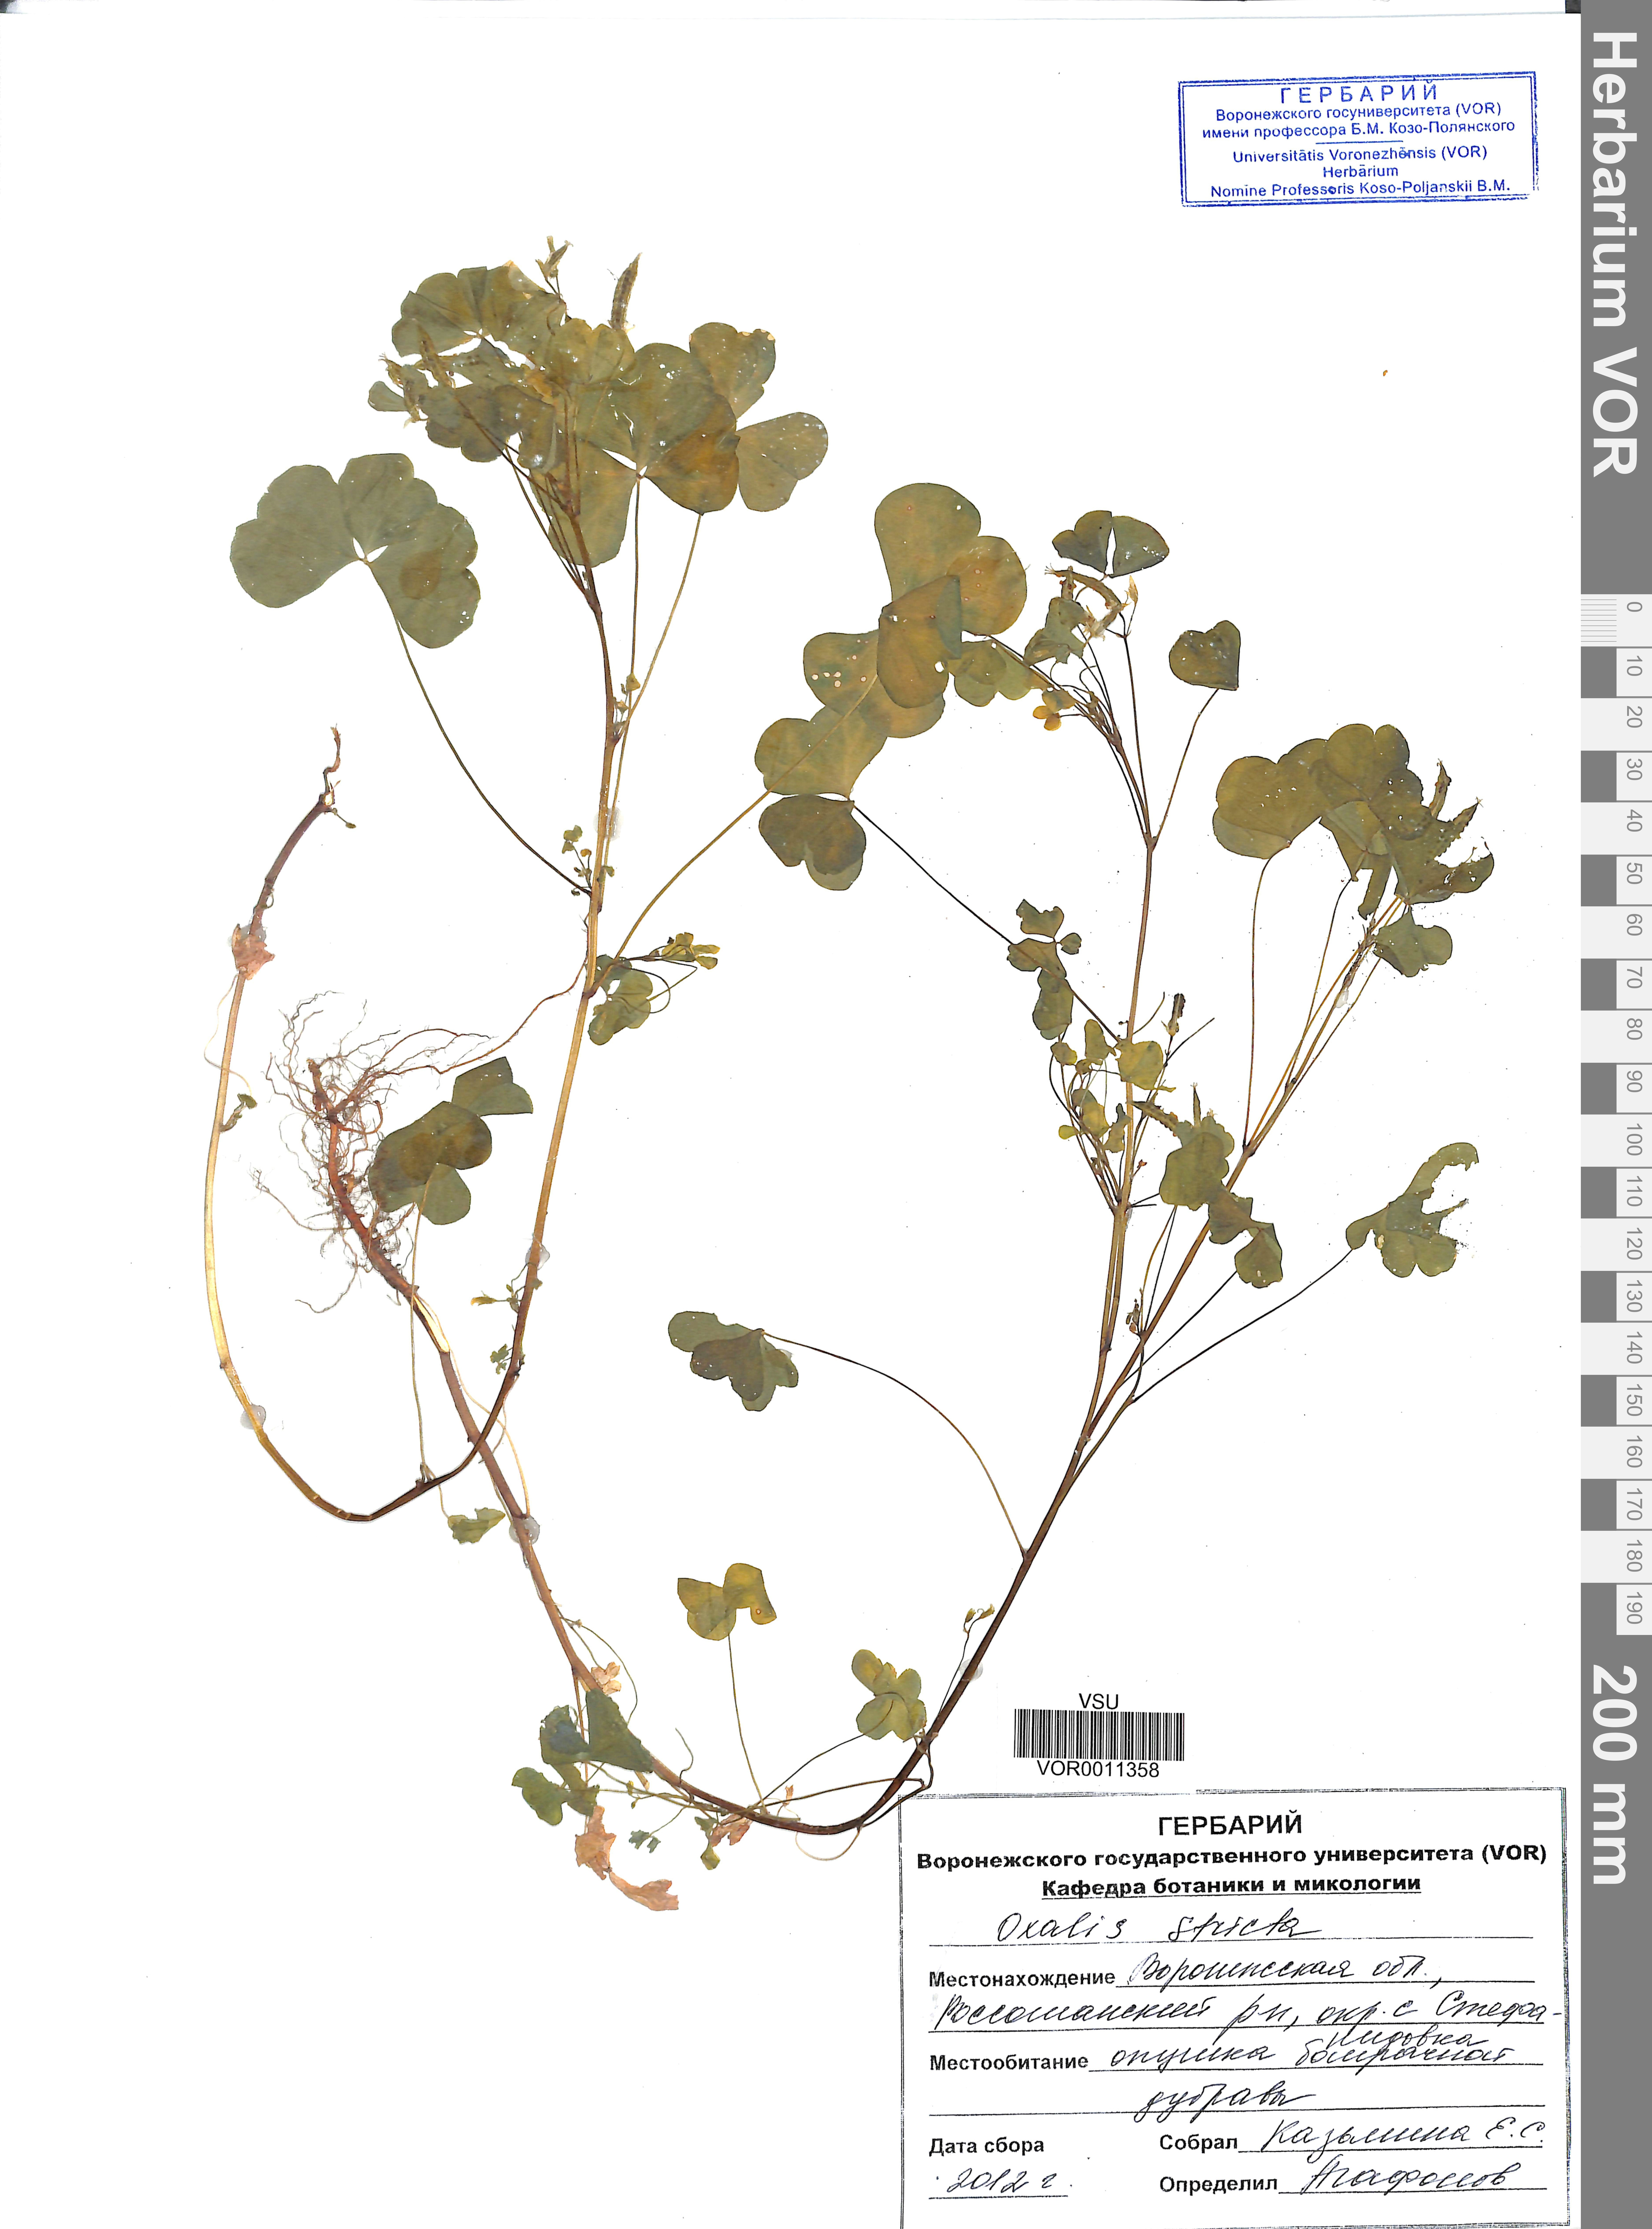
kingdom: Plantae
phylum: Tracheophyta
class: Magnoliopsida
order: Oxalidales
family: Oxalidaceae
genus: Oxalis
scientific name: Oxalis stricta
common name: Upright yellow-sorrel
